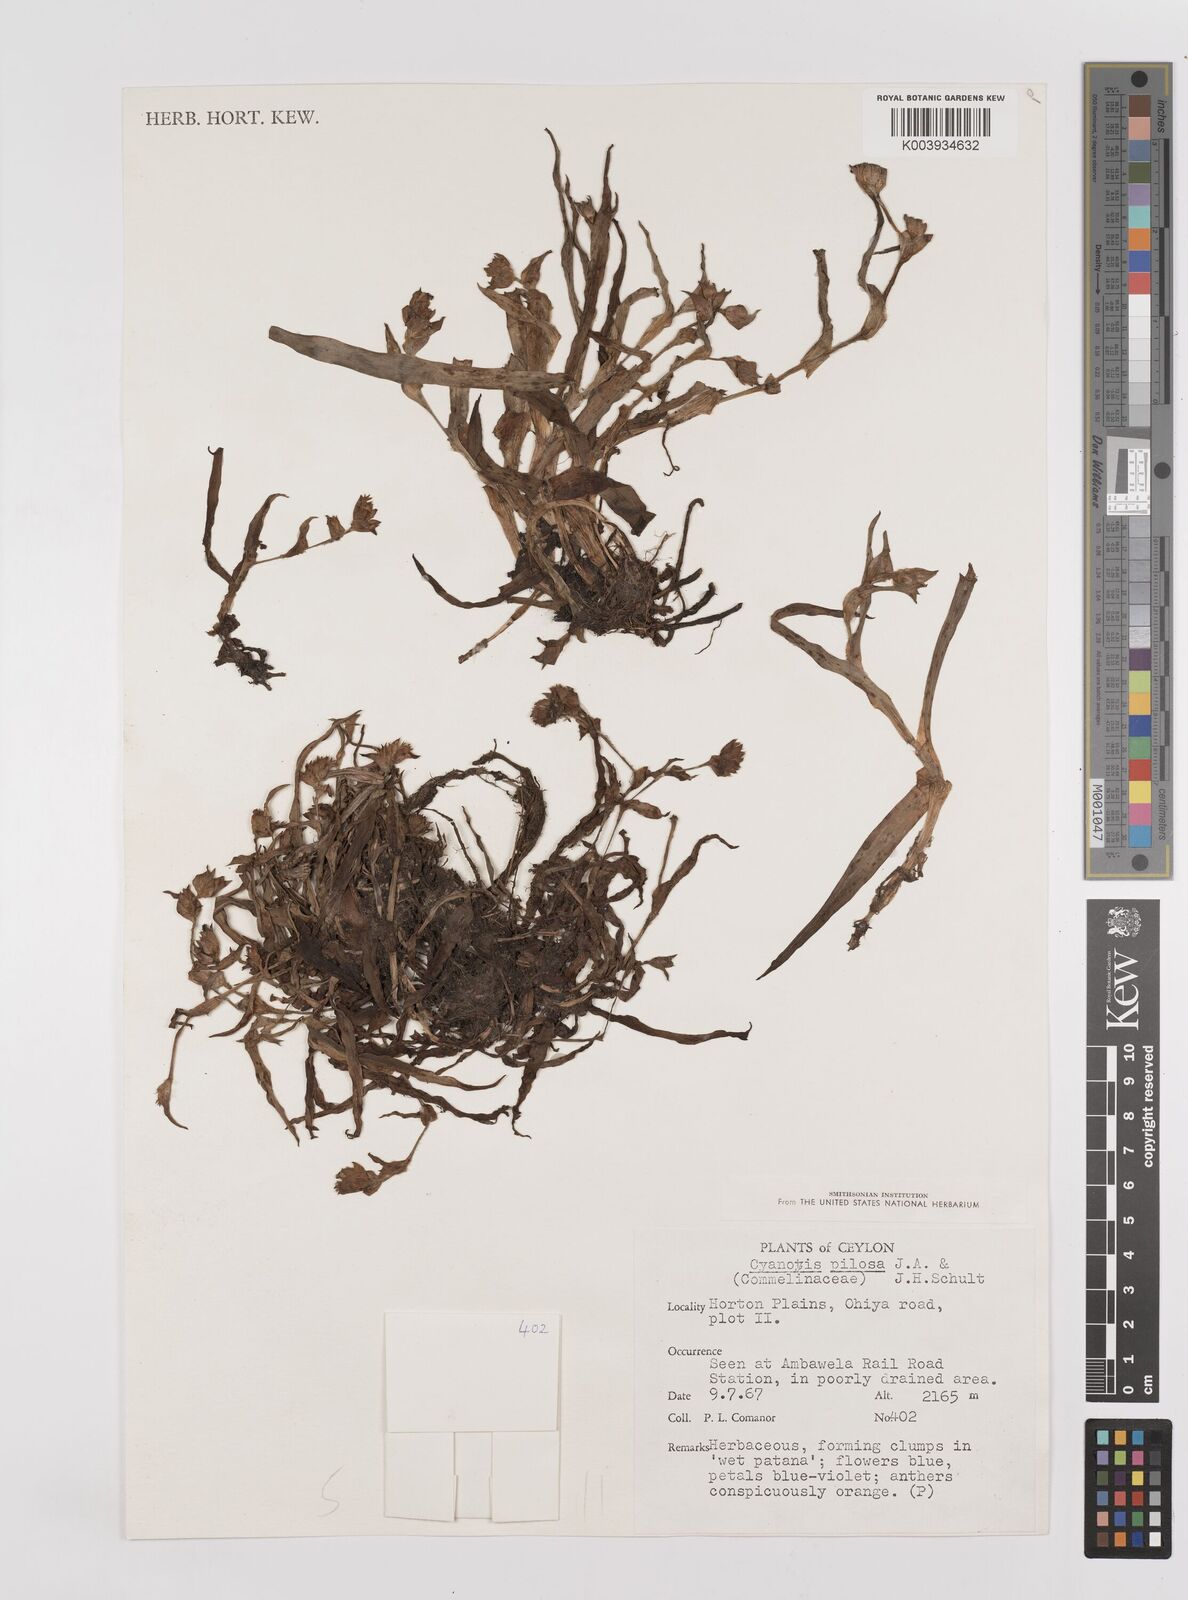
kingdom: Plantae
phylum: Tracheophyta
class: Liliopsida
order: Commelinales
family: Commelinaceae
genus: Cyanotis
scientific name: Cyanotis pilosa
